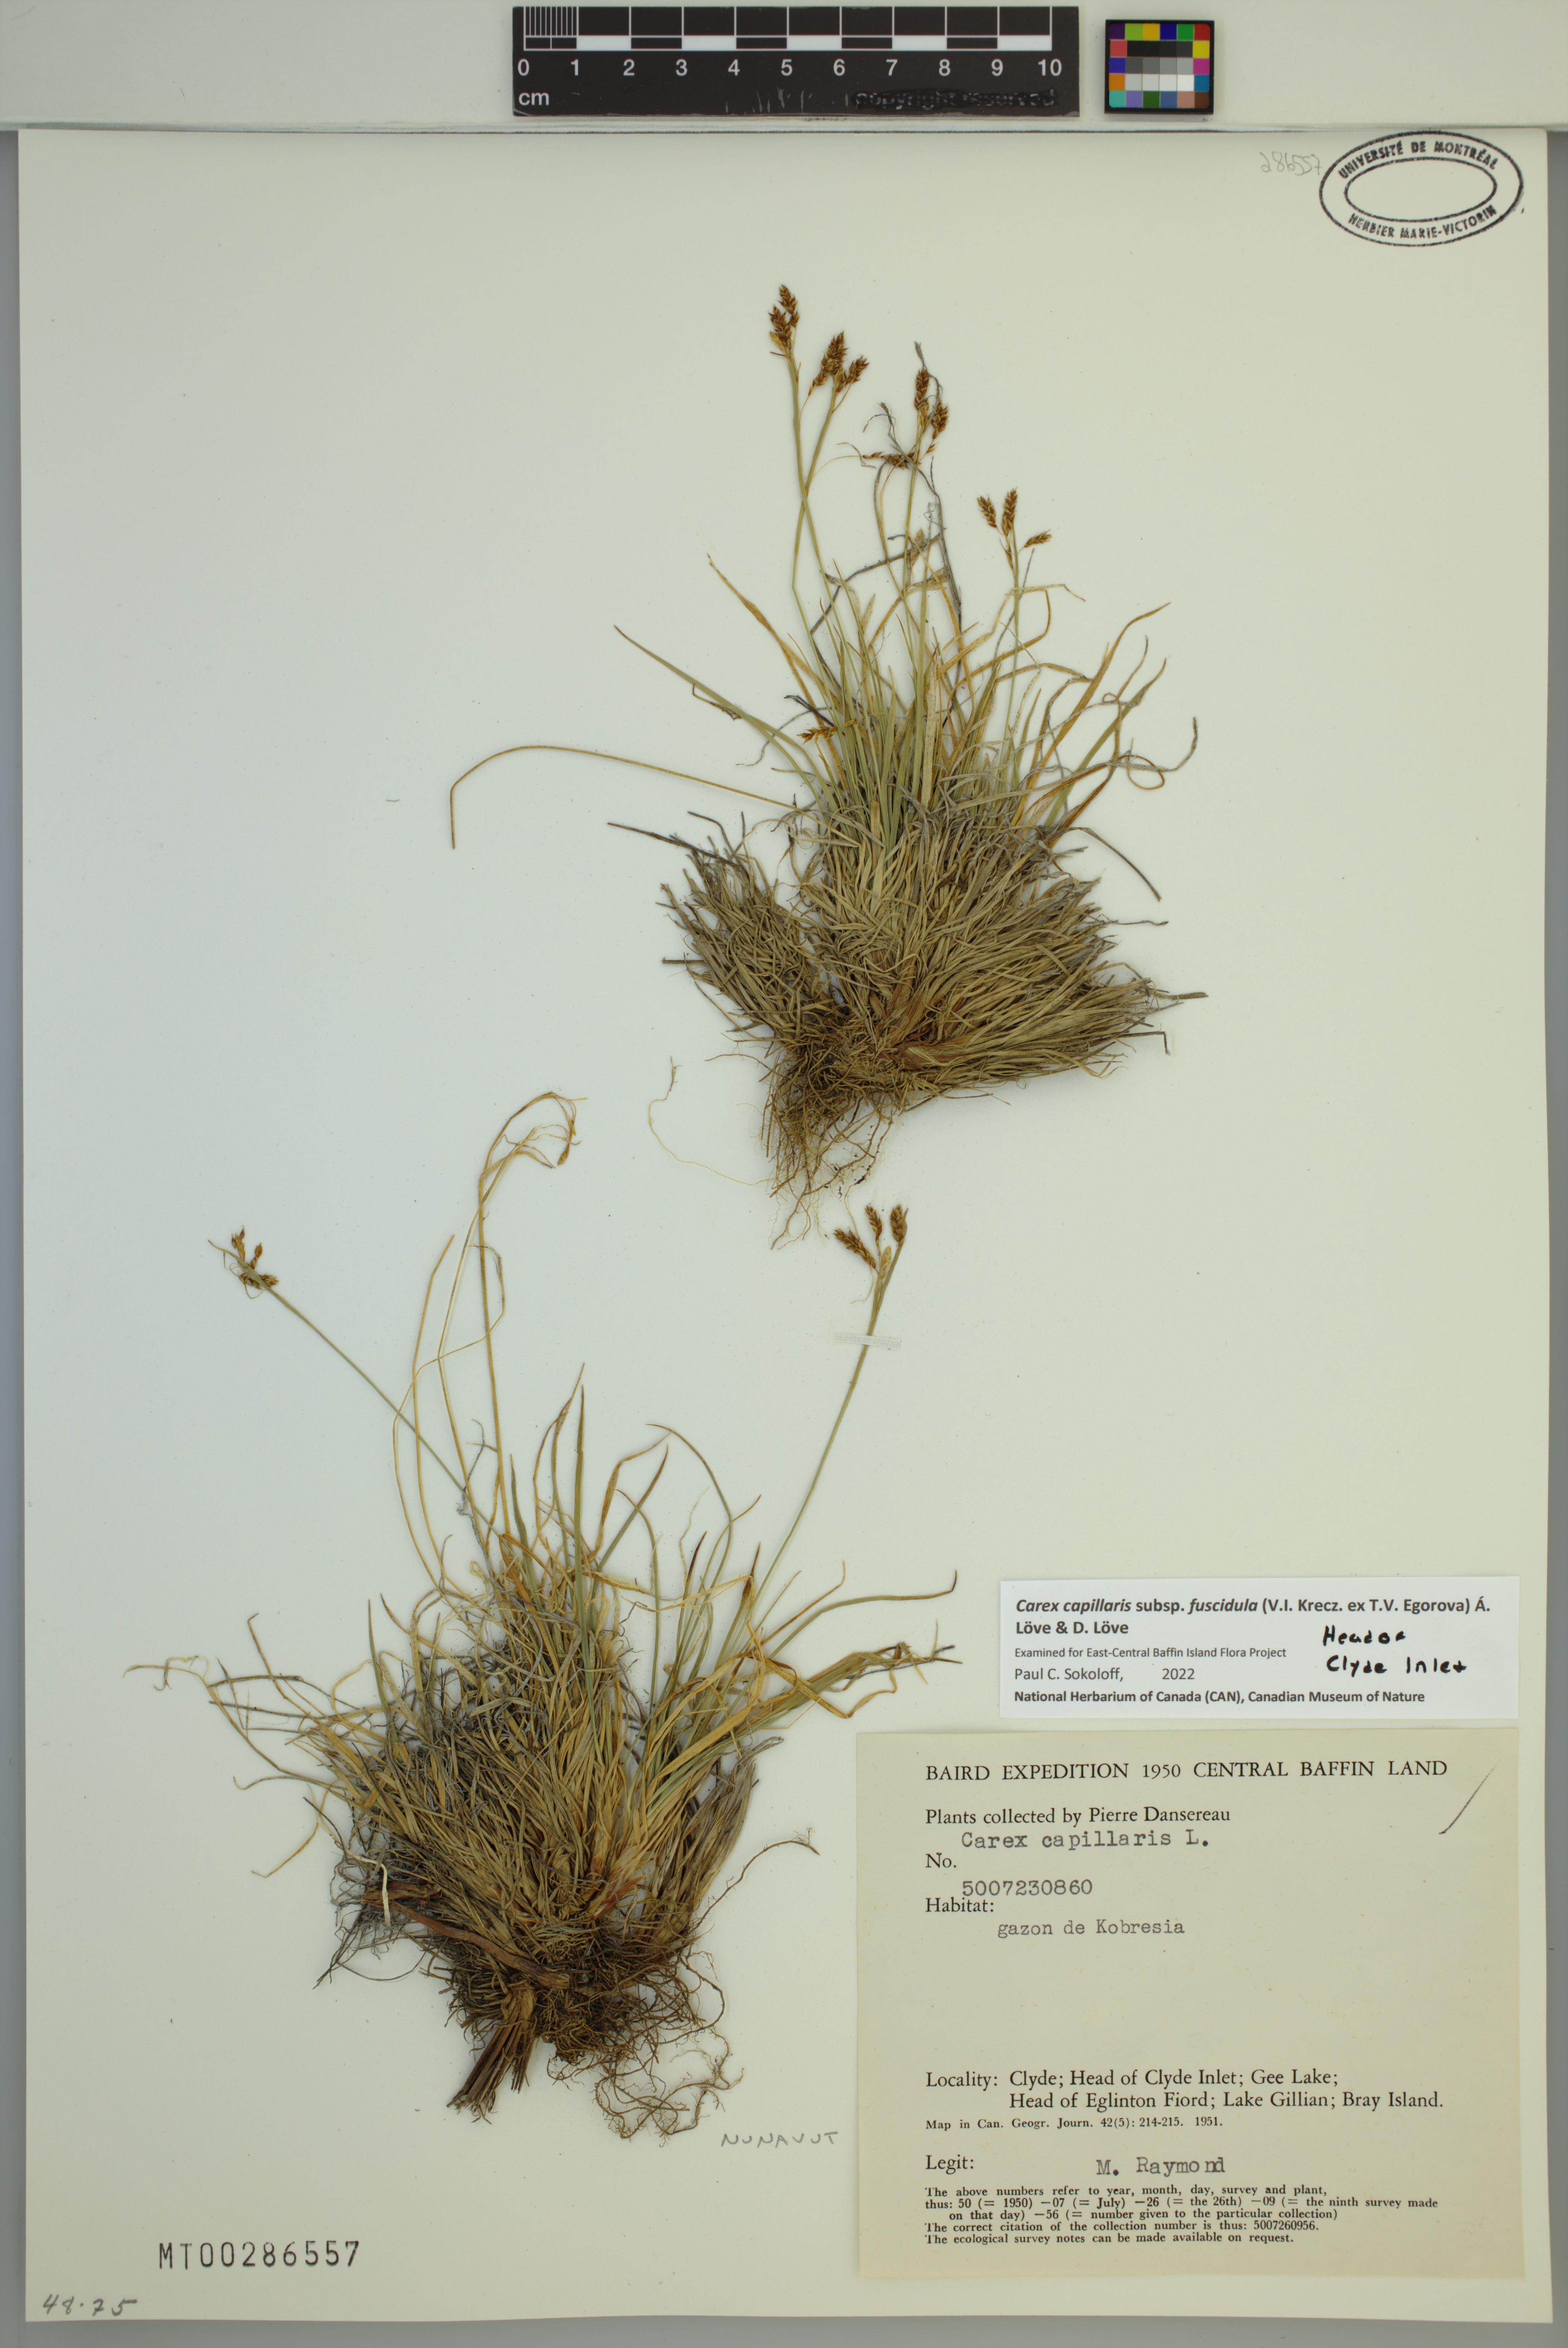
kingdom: Plantae
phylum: Tracheophyta
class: Liliopsida
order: Poales
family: Cyperaceae
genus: Carex
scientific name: Carex capillaris
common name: Hair sedge
